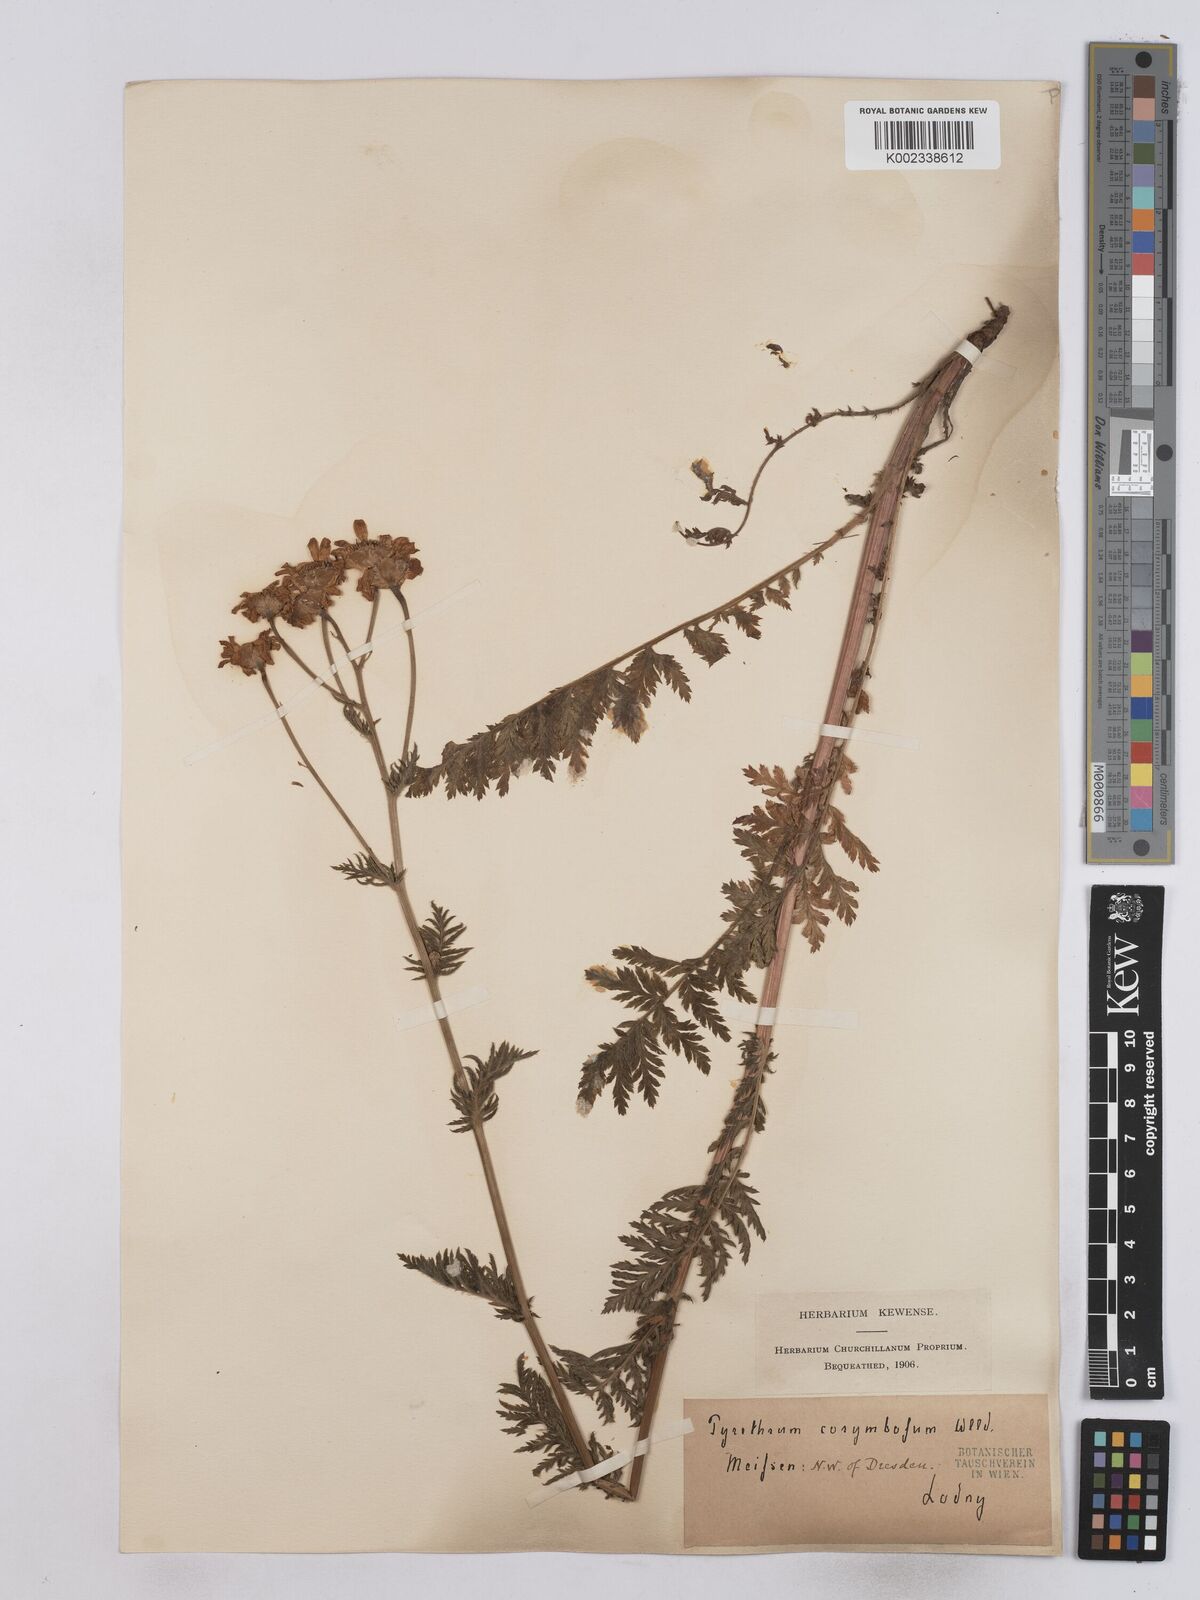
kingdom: Plantae
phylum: Tracheophyta
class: Magnoliopsida
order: Asterales
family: Asteraceae
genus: Tanacetum
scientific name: Tanacetum corymbosum
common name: Scentless feverfew
